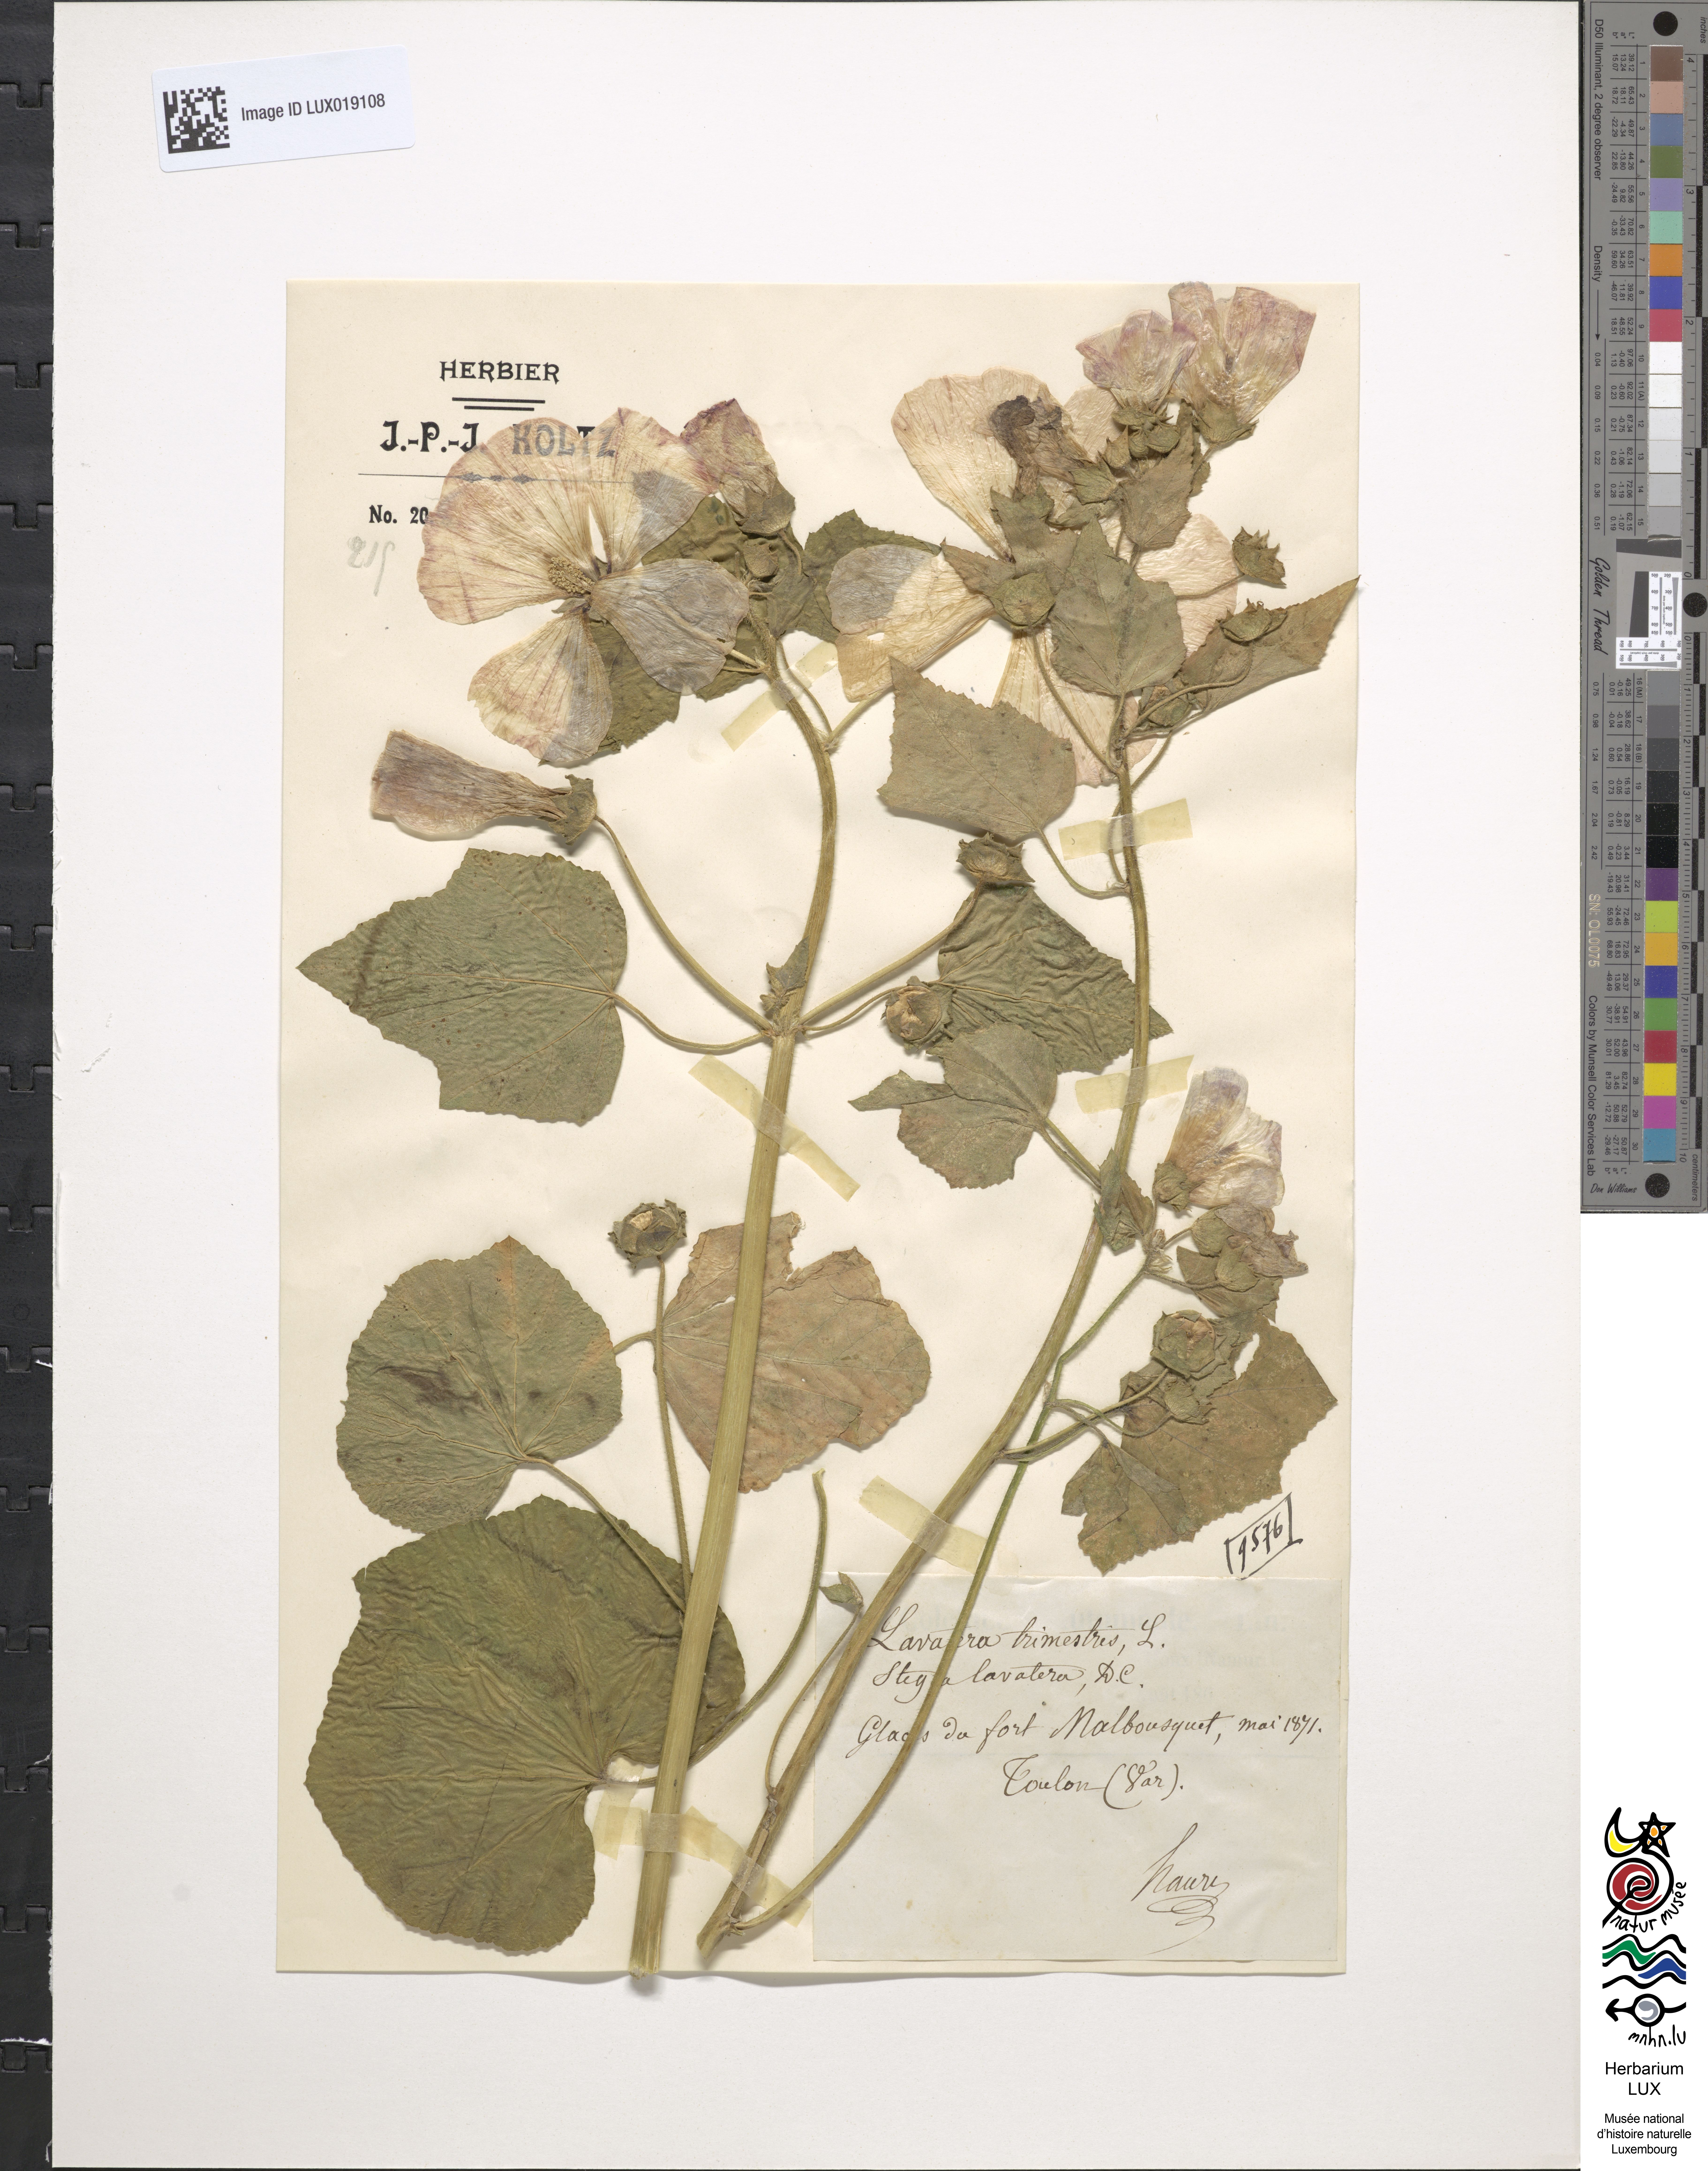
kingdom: Plantae
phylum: Tracheophyta
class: Magnoliopsida
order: Malvales
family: Malvaceae
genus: Malva
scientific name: Malva trimestris
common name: Royal mallow
